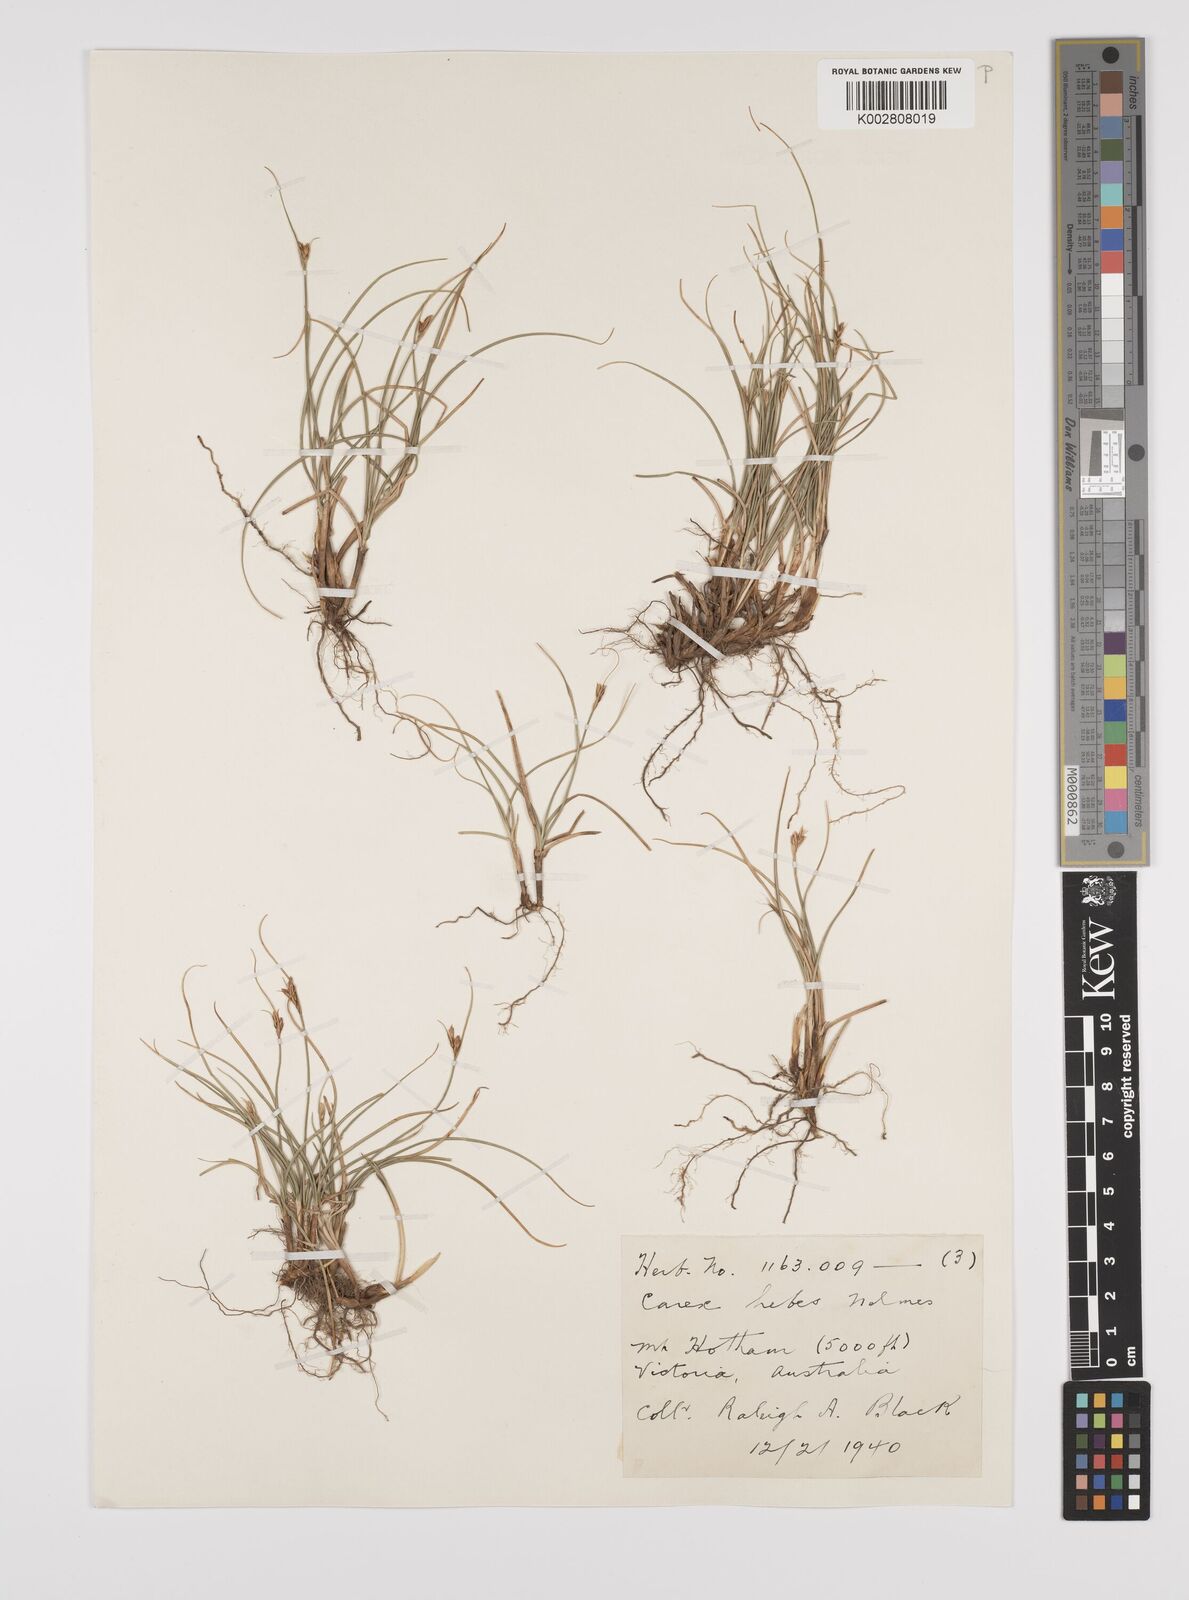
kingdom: Plantae
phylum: Tracheophyta
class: Liliopsida
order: Poales
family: Cyperaceae
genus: Carex
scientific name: Carex hebes
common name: Dry land sedge
